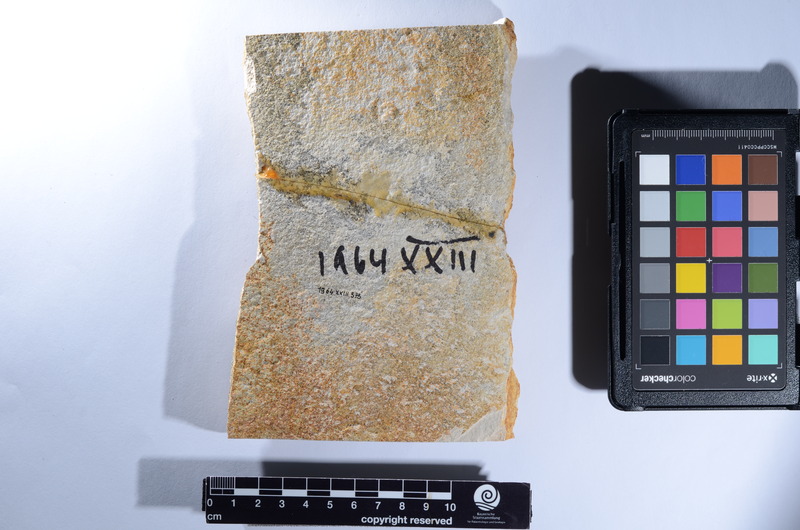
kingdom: Animalia
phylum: Chordata
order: Lepisosteiformes
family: Lepidotidae
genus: Lepidotes
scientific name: Lepidotes
